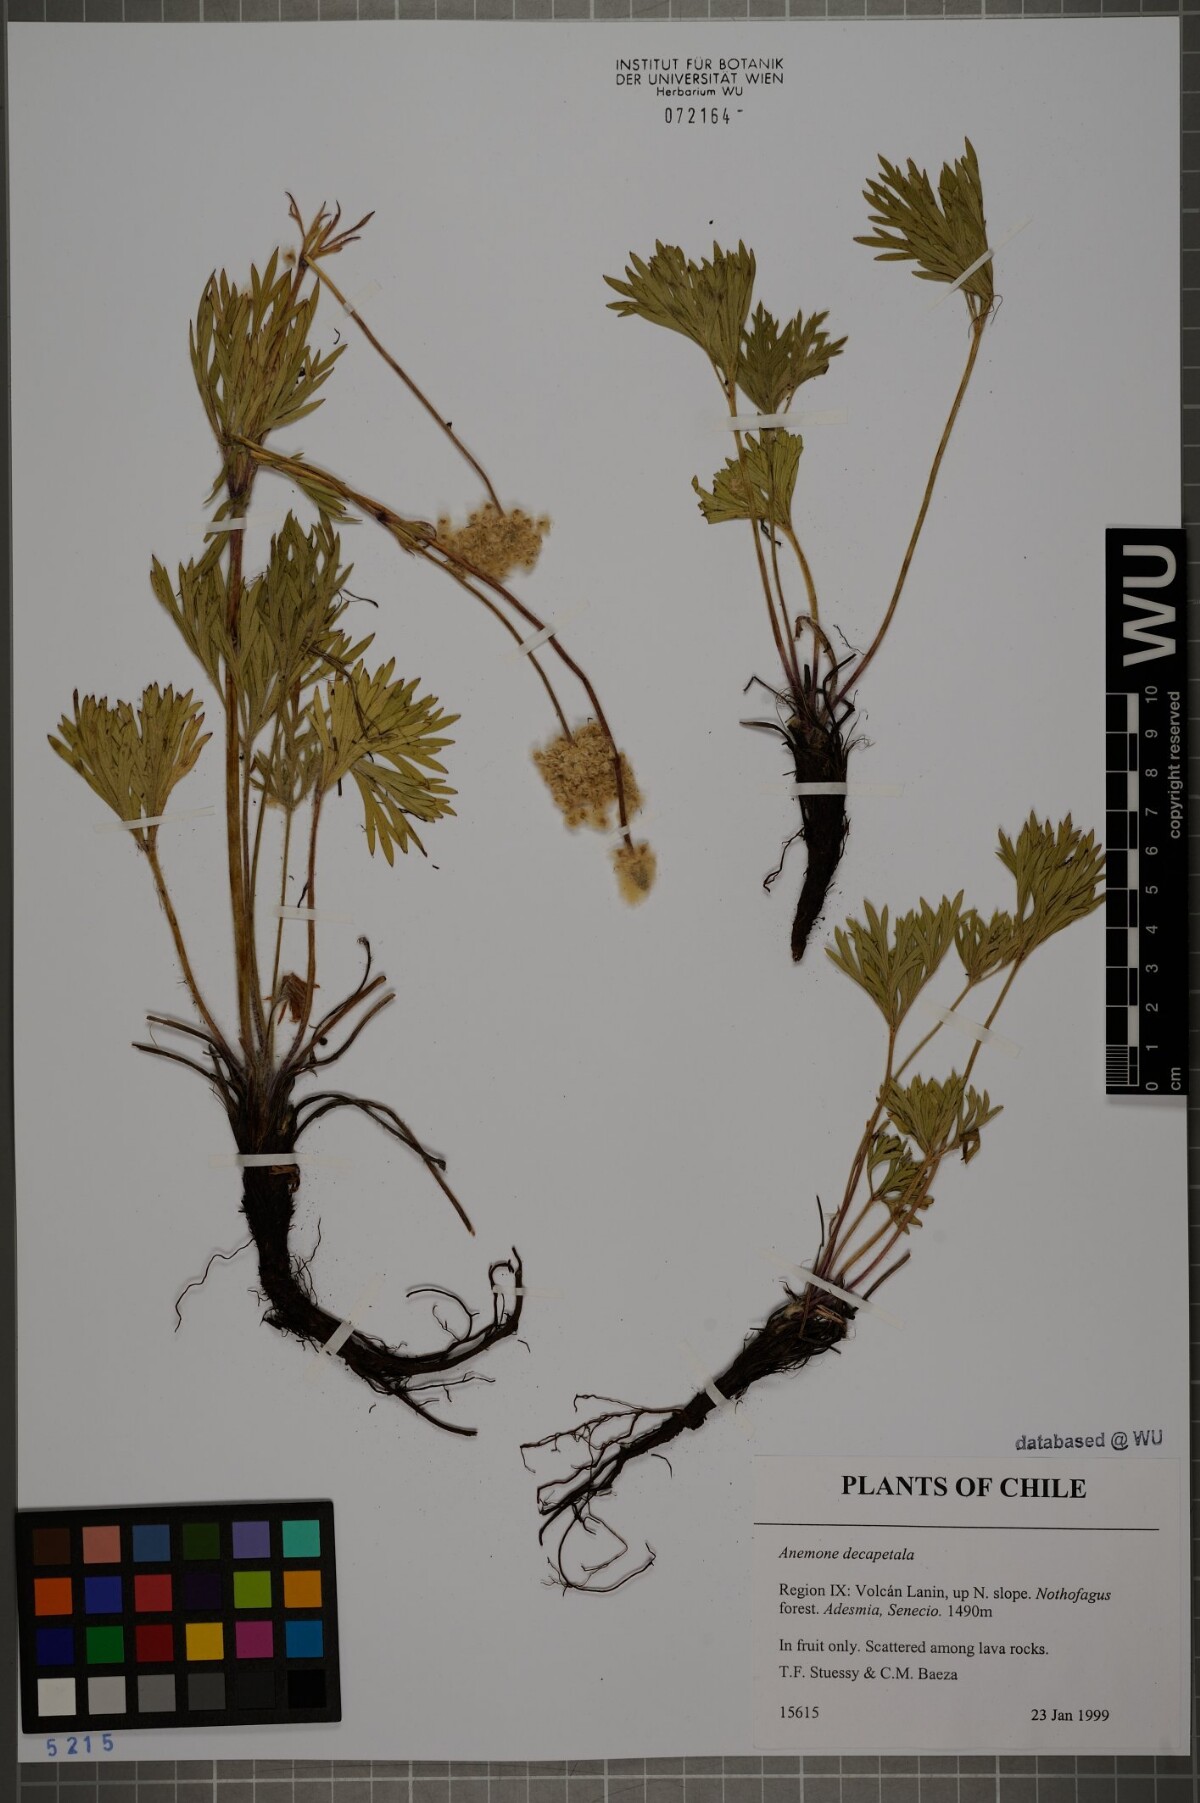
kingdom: Plantae
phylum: Tracheophyta
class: Magnoliopsida
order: Ranunculales
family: Ranunculaceae
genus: Anemone
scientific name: Anemone decapetala
